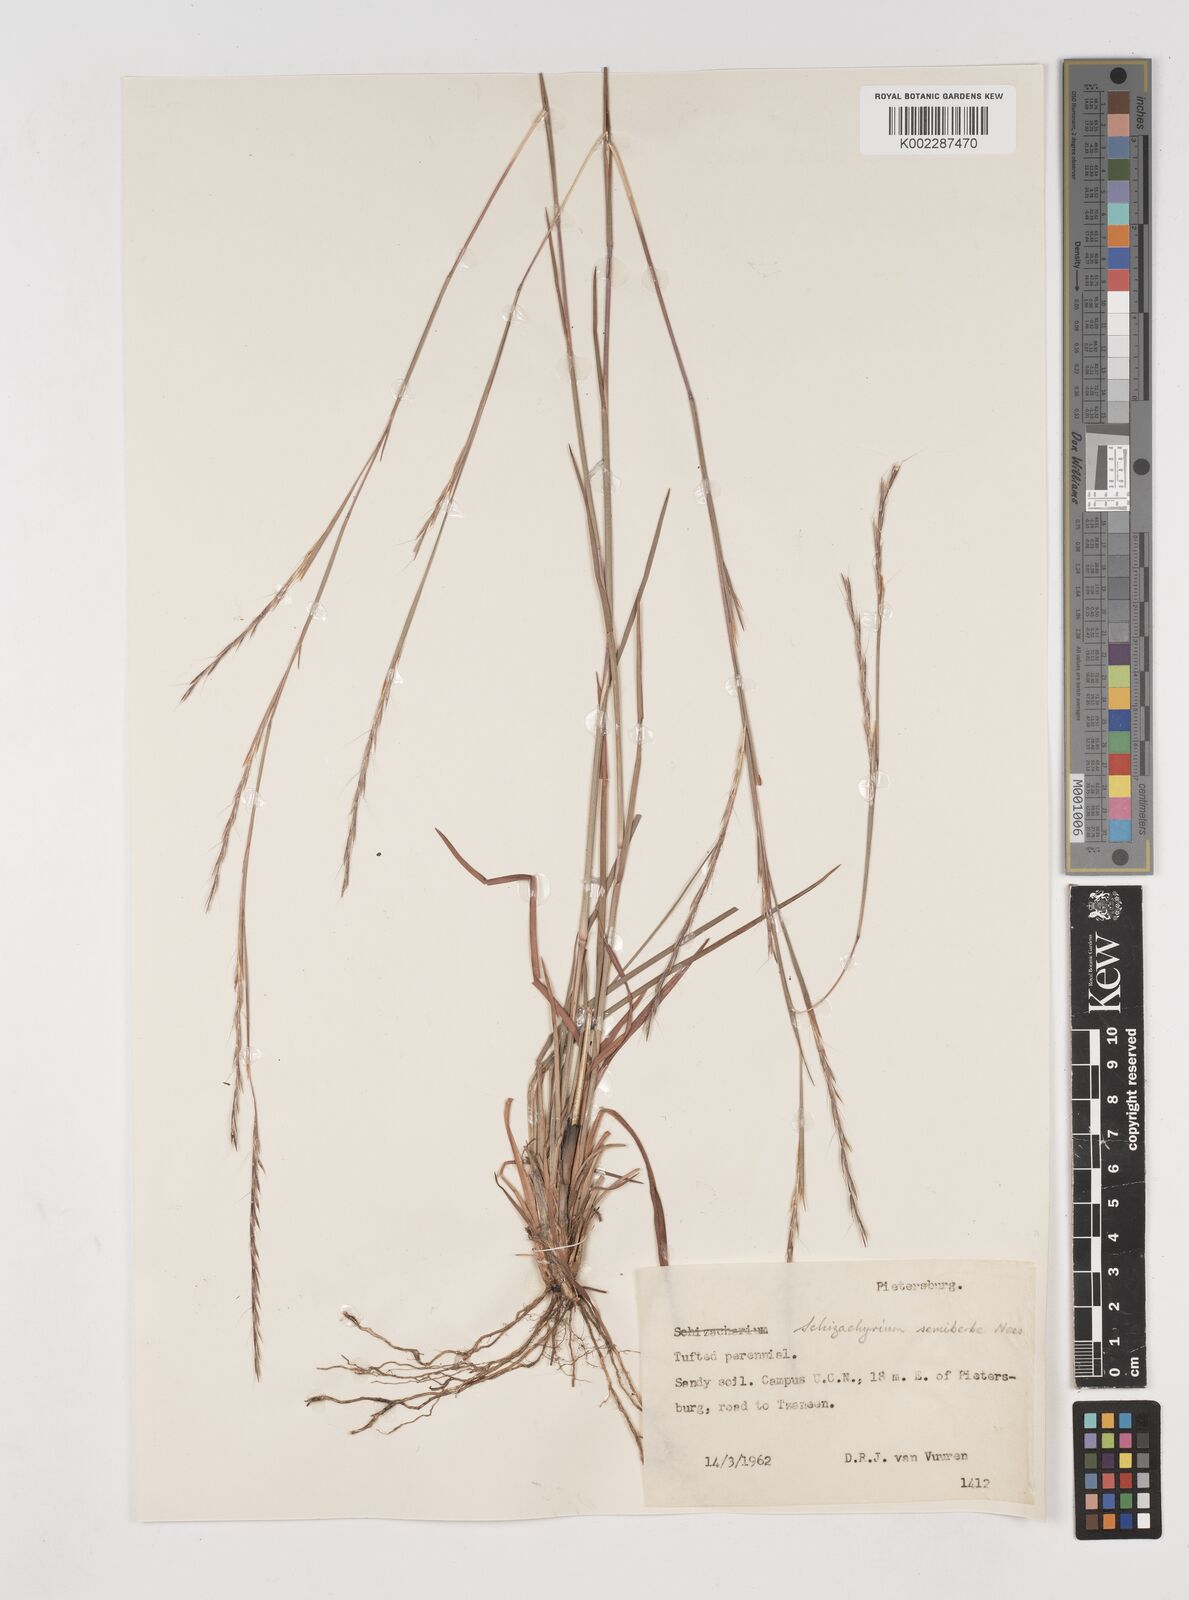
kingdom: Plantae
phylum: Tracheophyta
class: Liliopsida
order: Poales
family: Poaceae
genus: Schizachyrium
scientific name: Schizachyrium sanguineum
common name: Crimson bluestem
